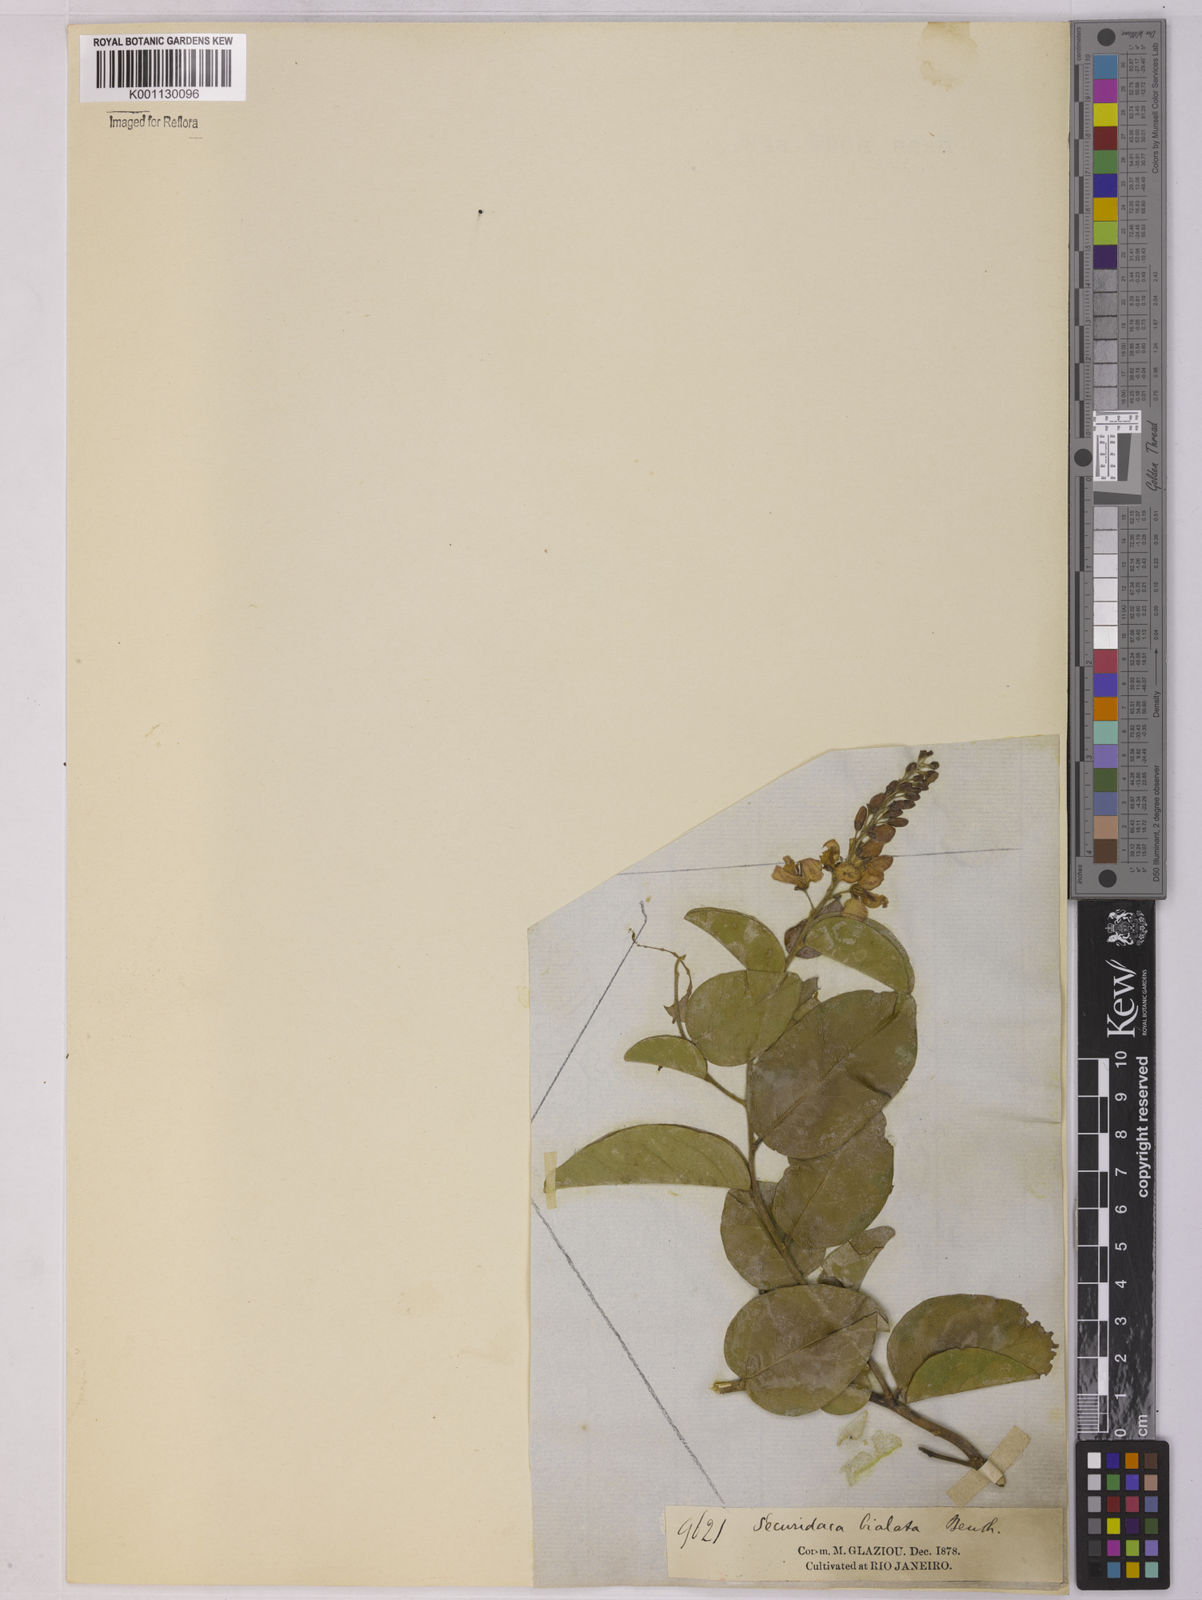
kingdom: Plantae
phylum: Tracheophyta
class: Magnoliopsida
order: Fabales
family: Polygalaceae
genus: Securidaca
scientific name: Securidaca bialata
